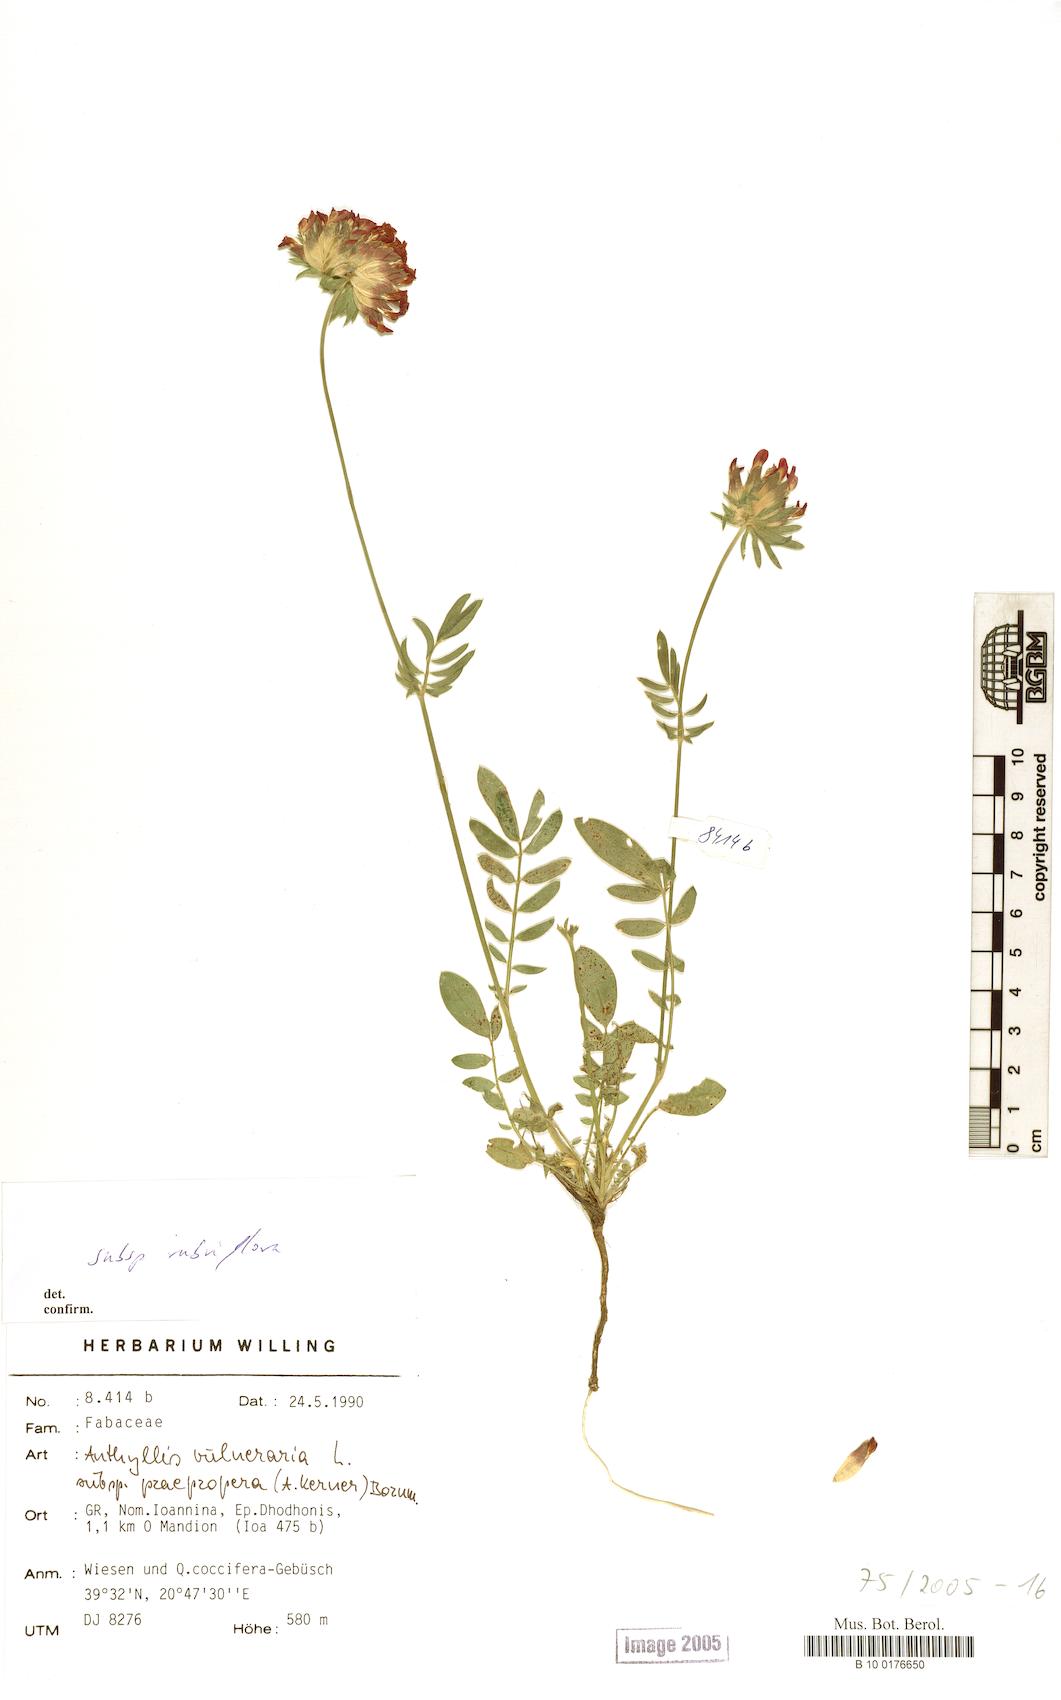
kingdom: Plantae
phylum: Tracheophyta
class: Magnoliopsida
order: Fabales
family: Fabaceae
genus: Anthyllis
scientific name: Anthyllis vulneraria
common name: Kidney vetch
